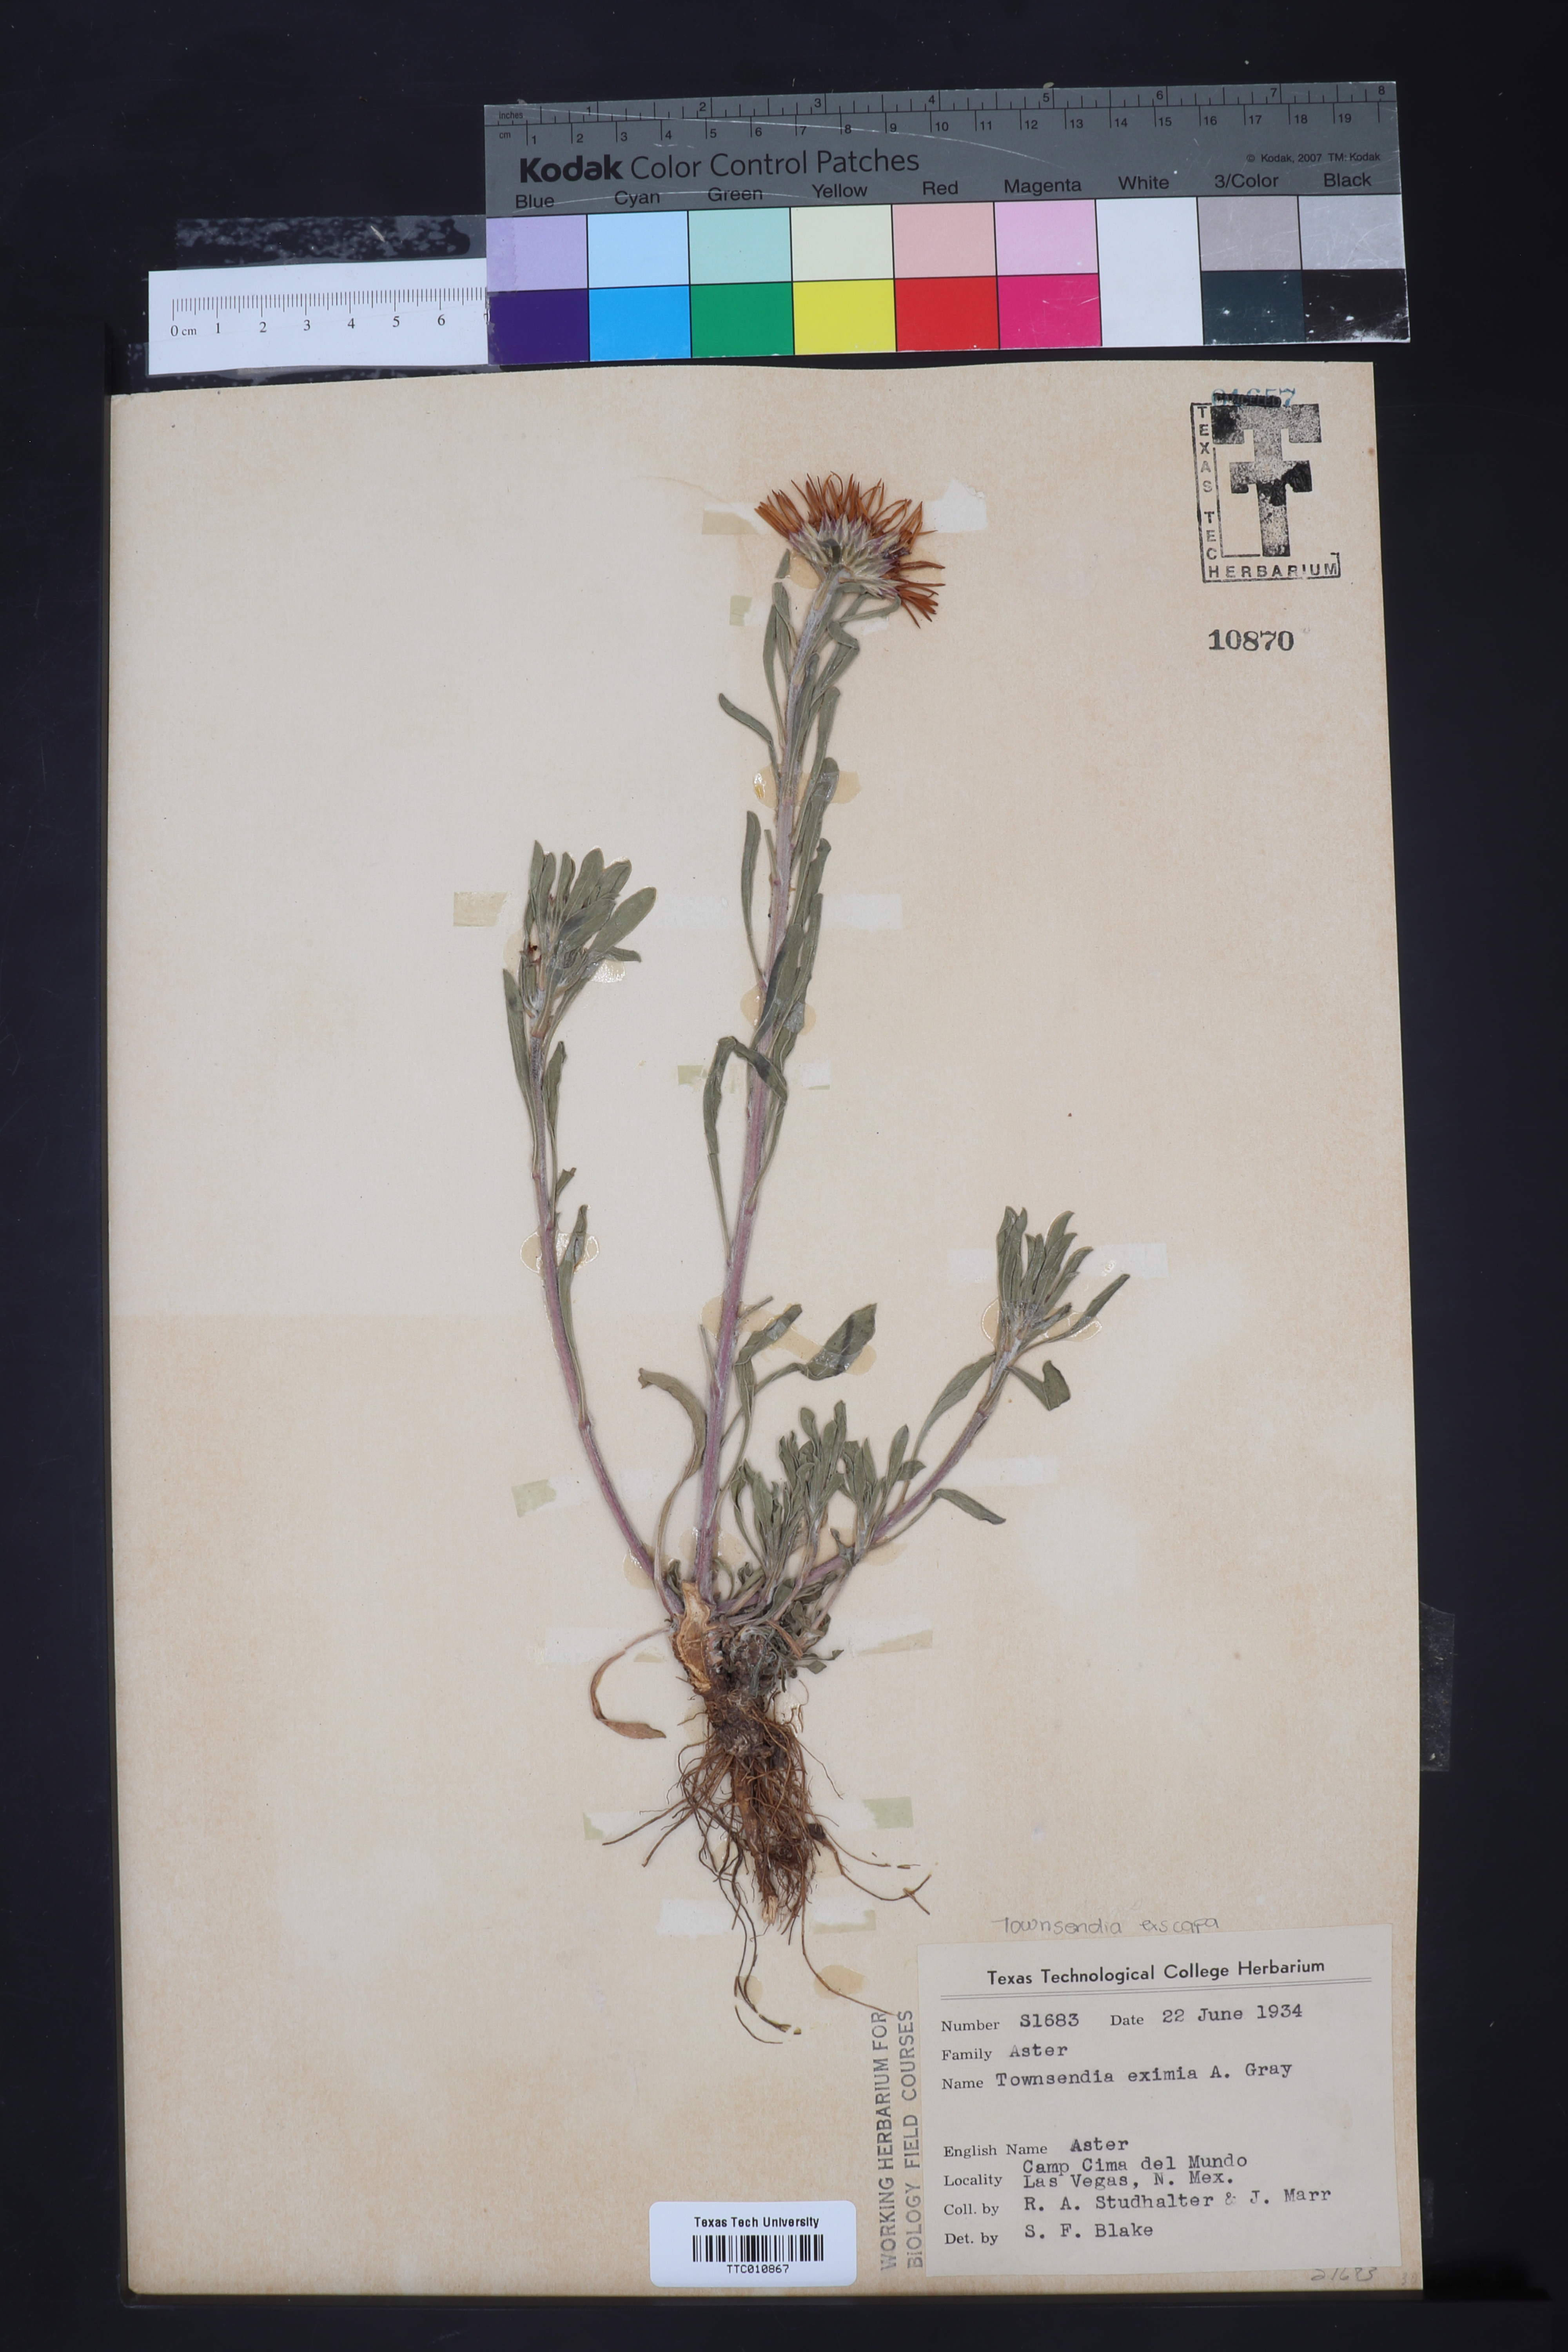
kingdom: Plantae
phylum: Tracheophyta
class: Magnoliopsida
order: Asterales
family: Asteraceae
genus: Townsendia
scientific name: Townsendia eximia
